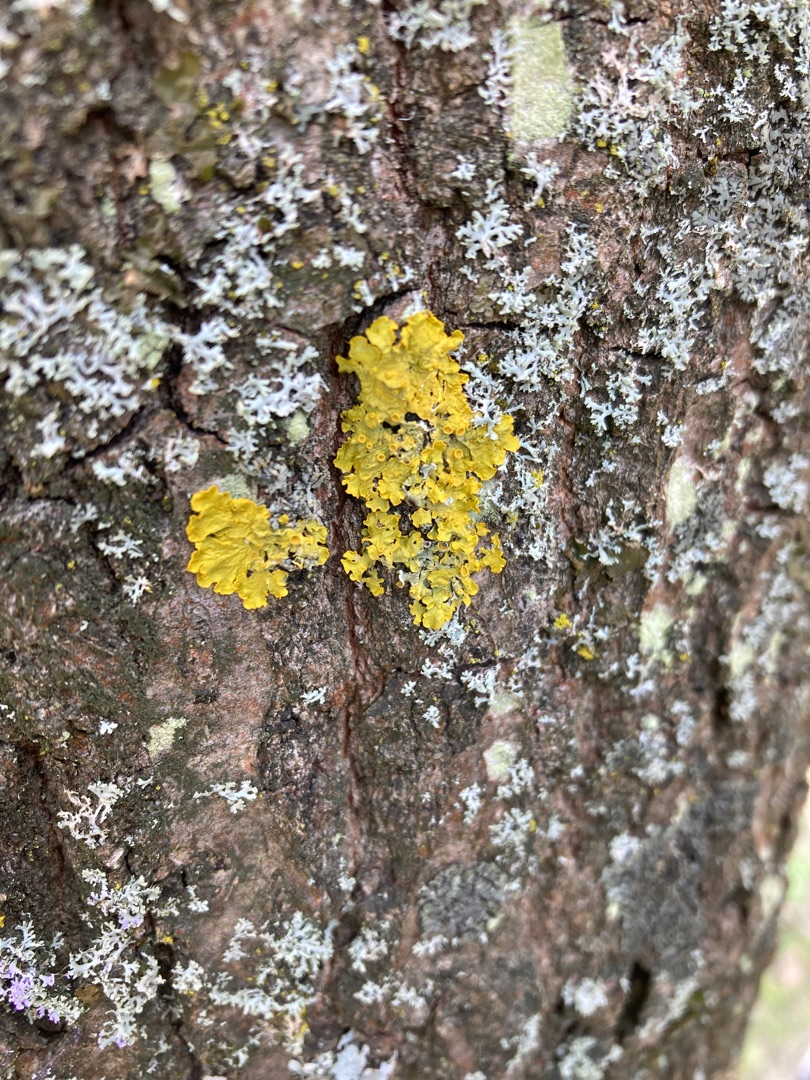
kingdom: Fungi
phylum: Ascomycota
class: Lecanoromycetes
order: Teloschistales
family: Teloschistaceae
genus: Xanthoria
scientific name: Xanthoria parietina
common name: Almindelig væggelav
